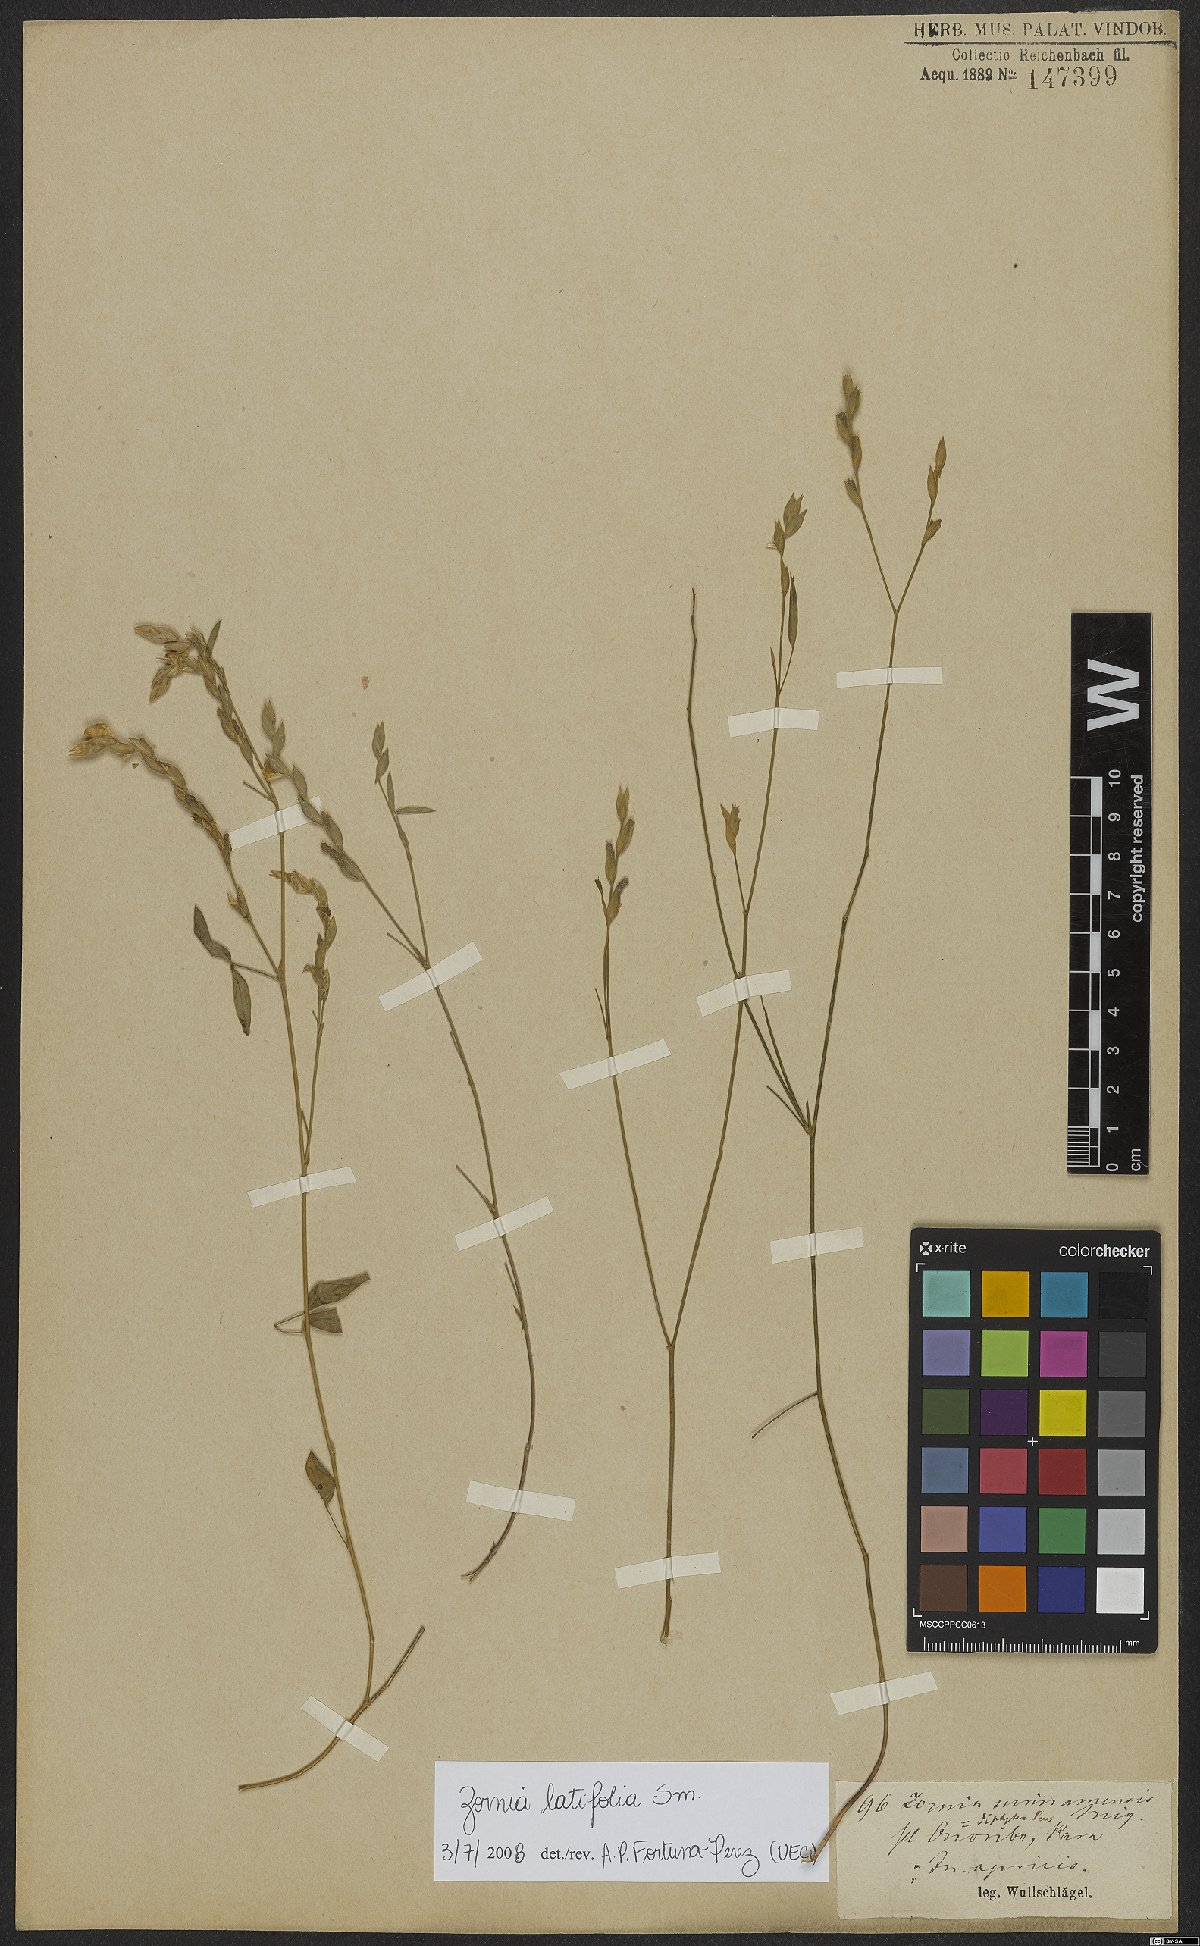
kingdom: Plantae
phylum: Tracheophyta
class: Magnoliopsida
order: Fabales
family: Fabaceae
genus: Zornia
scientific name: Zornia sericea
